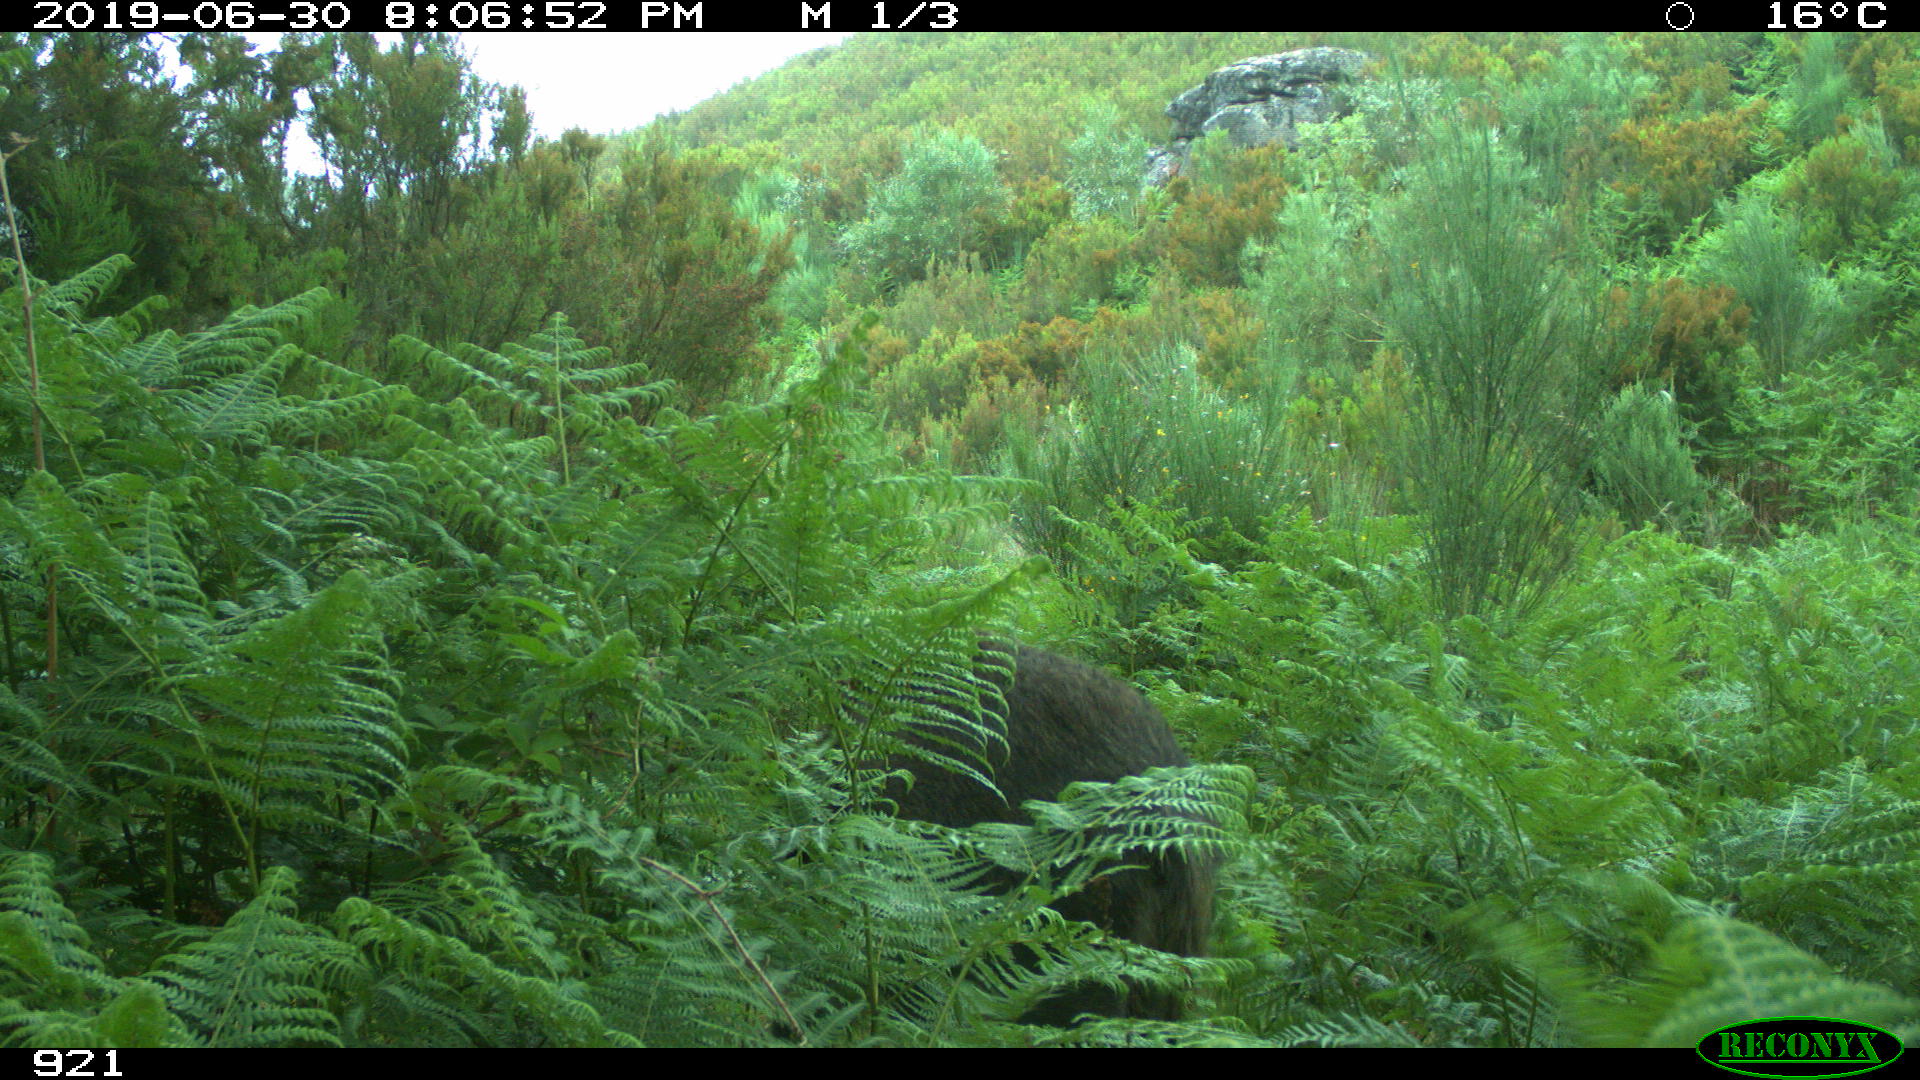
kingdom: Animalia
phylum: Chordata
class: Mammalia
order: Artiodactyla
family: Suidae
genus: Sus
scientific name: Sus scrofa
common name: Wild boar
